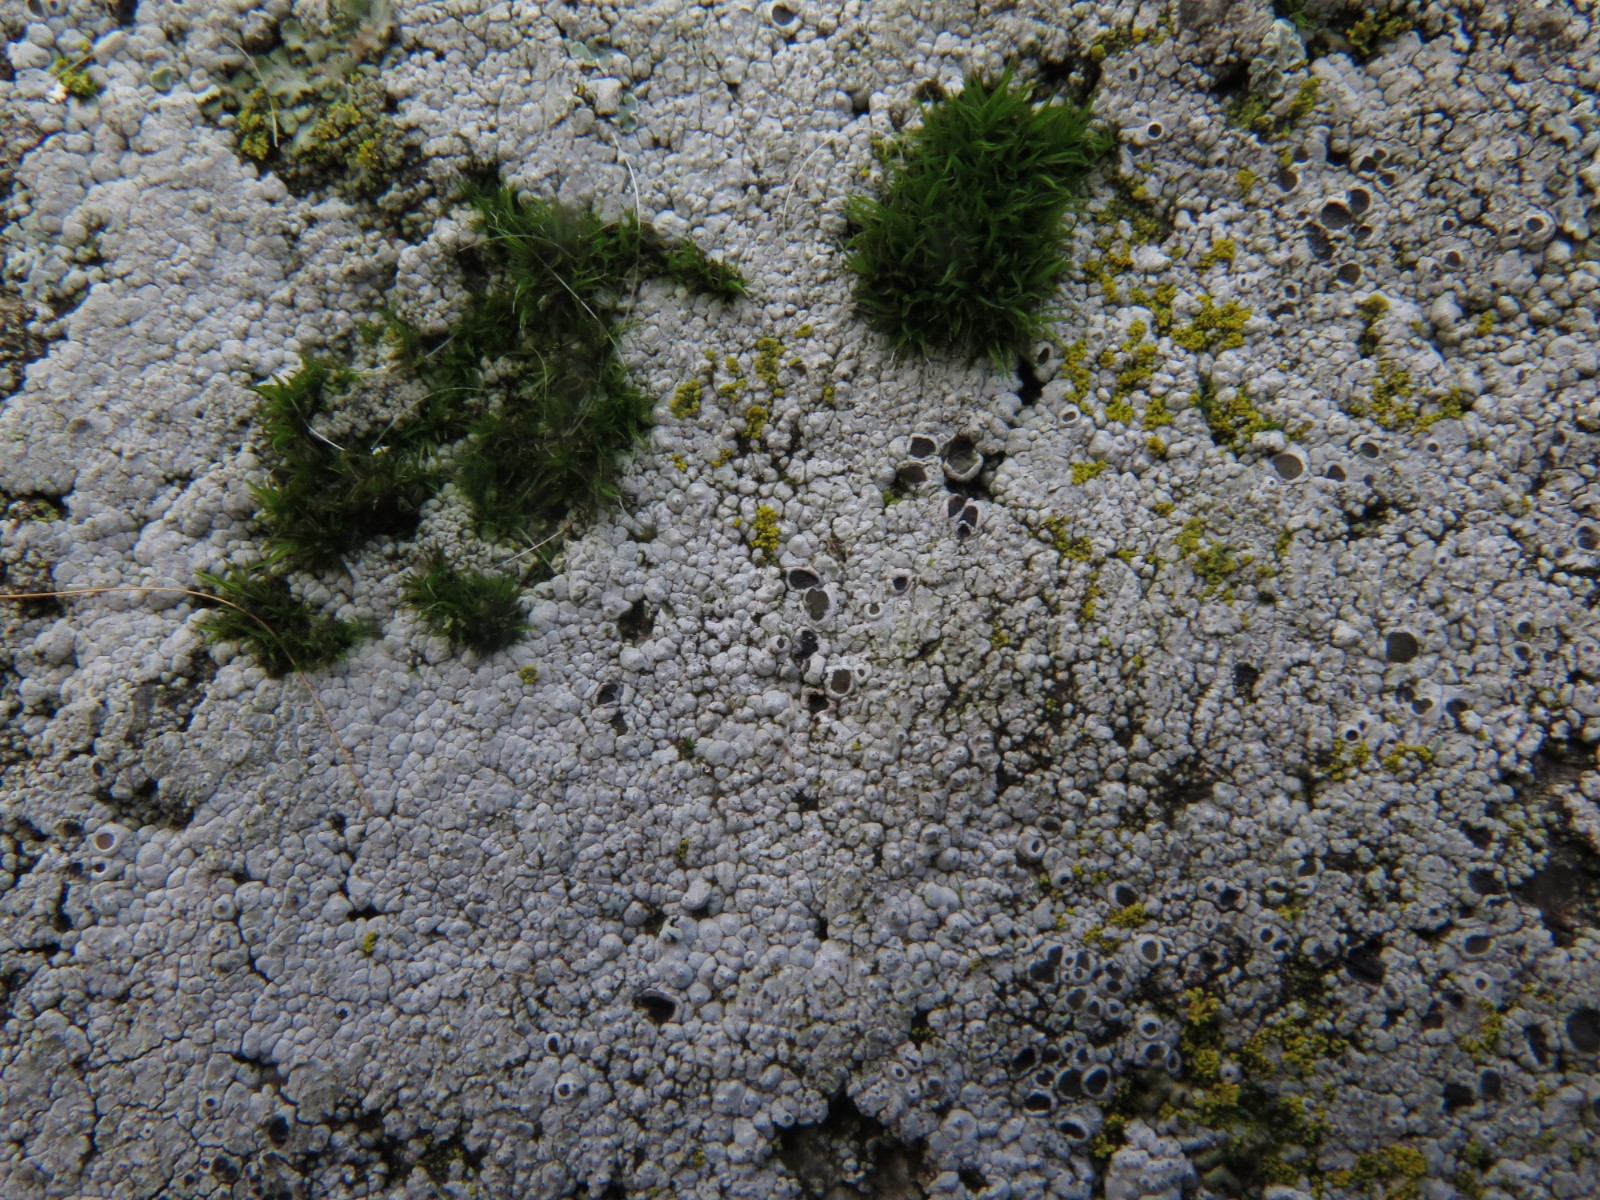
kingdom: Fungi
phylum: Ascomycota
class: Lecanoromycetes
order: Lecanorales
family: Tephromelataceae
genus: Tephromela
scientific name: Tephromela atra
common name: sortfrugtet kantskivelav
